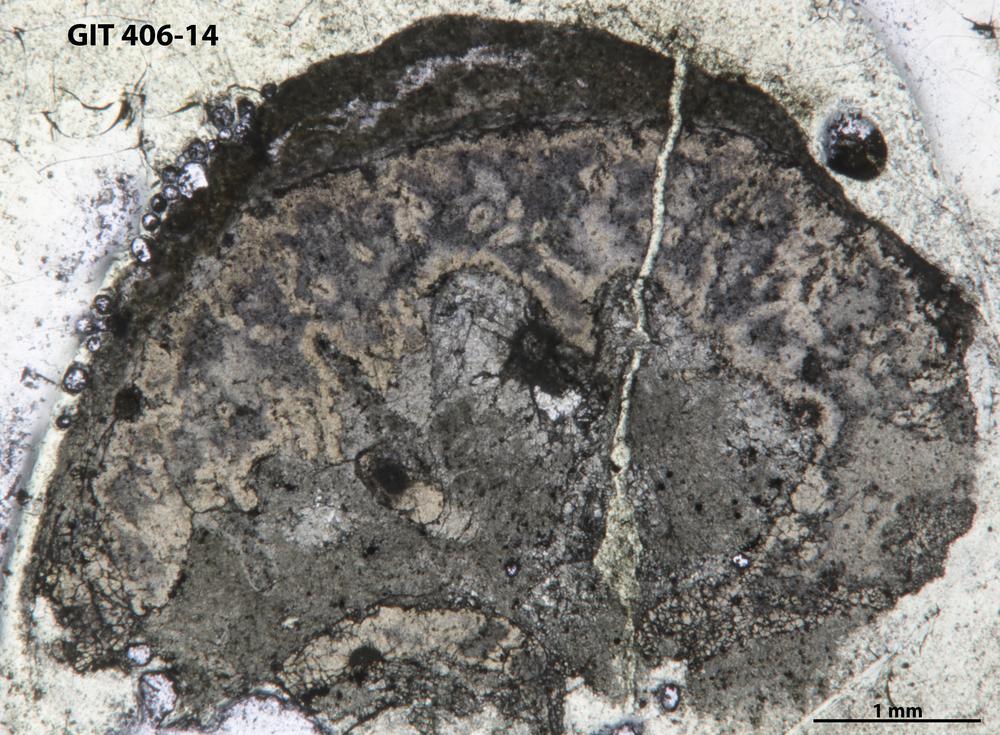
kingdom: Animalia
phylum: Cnidaria
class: Anthozoa
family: Lambelasmatidae
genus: Estonielasma
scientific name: Estonielasma
